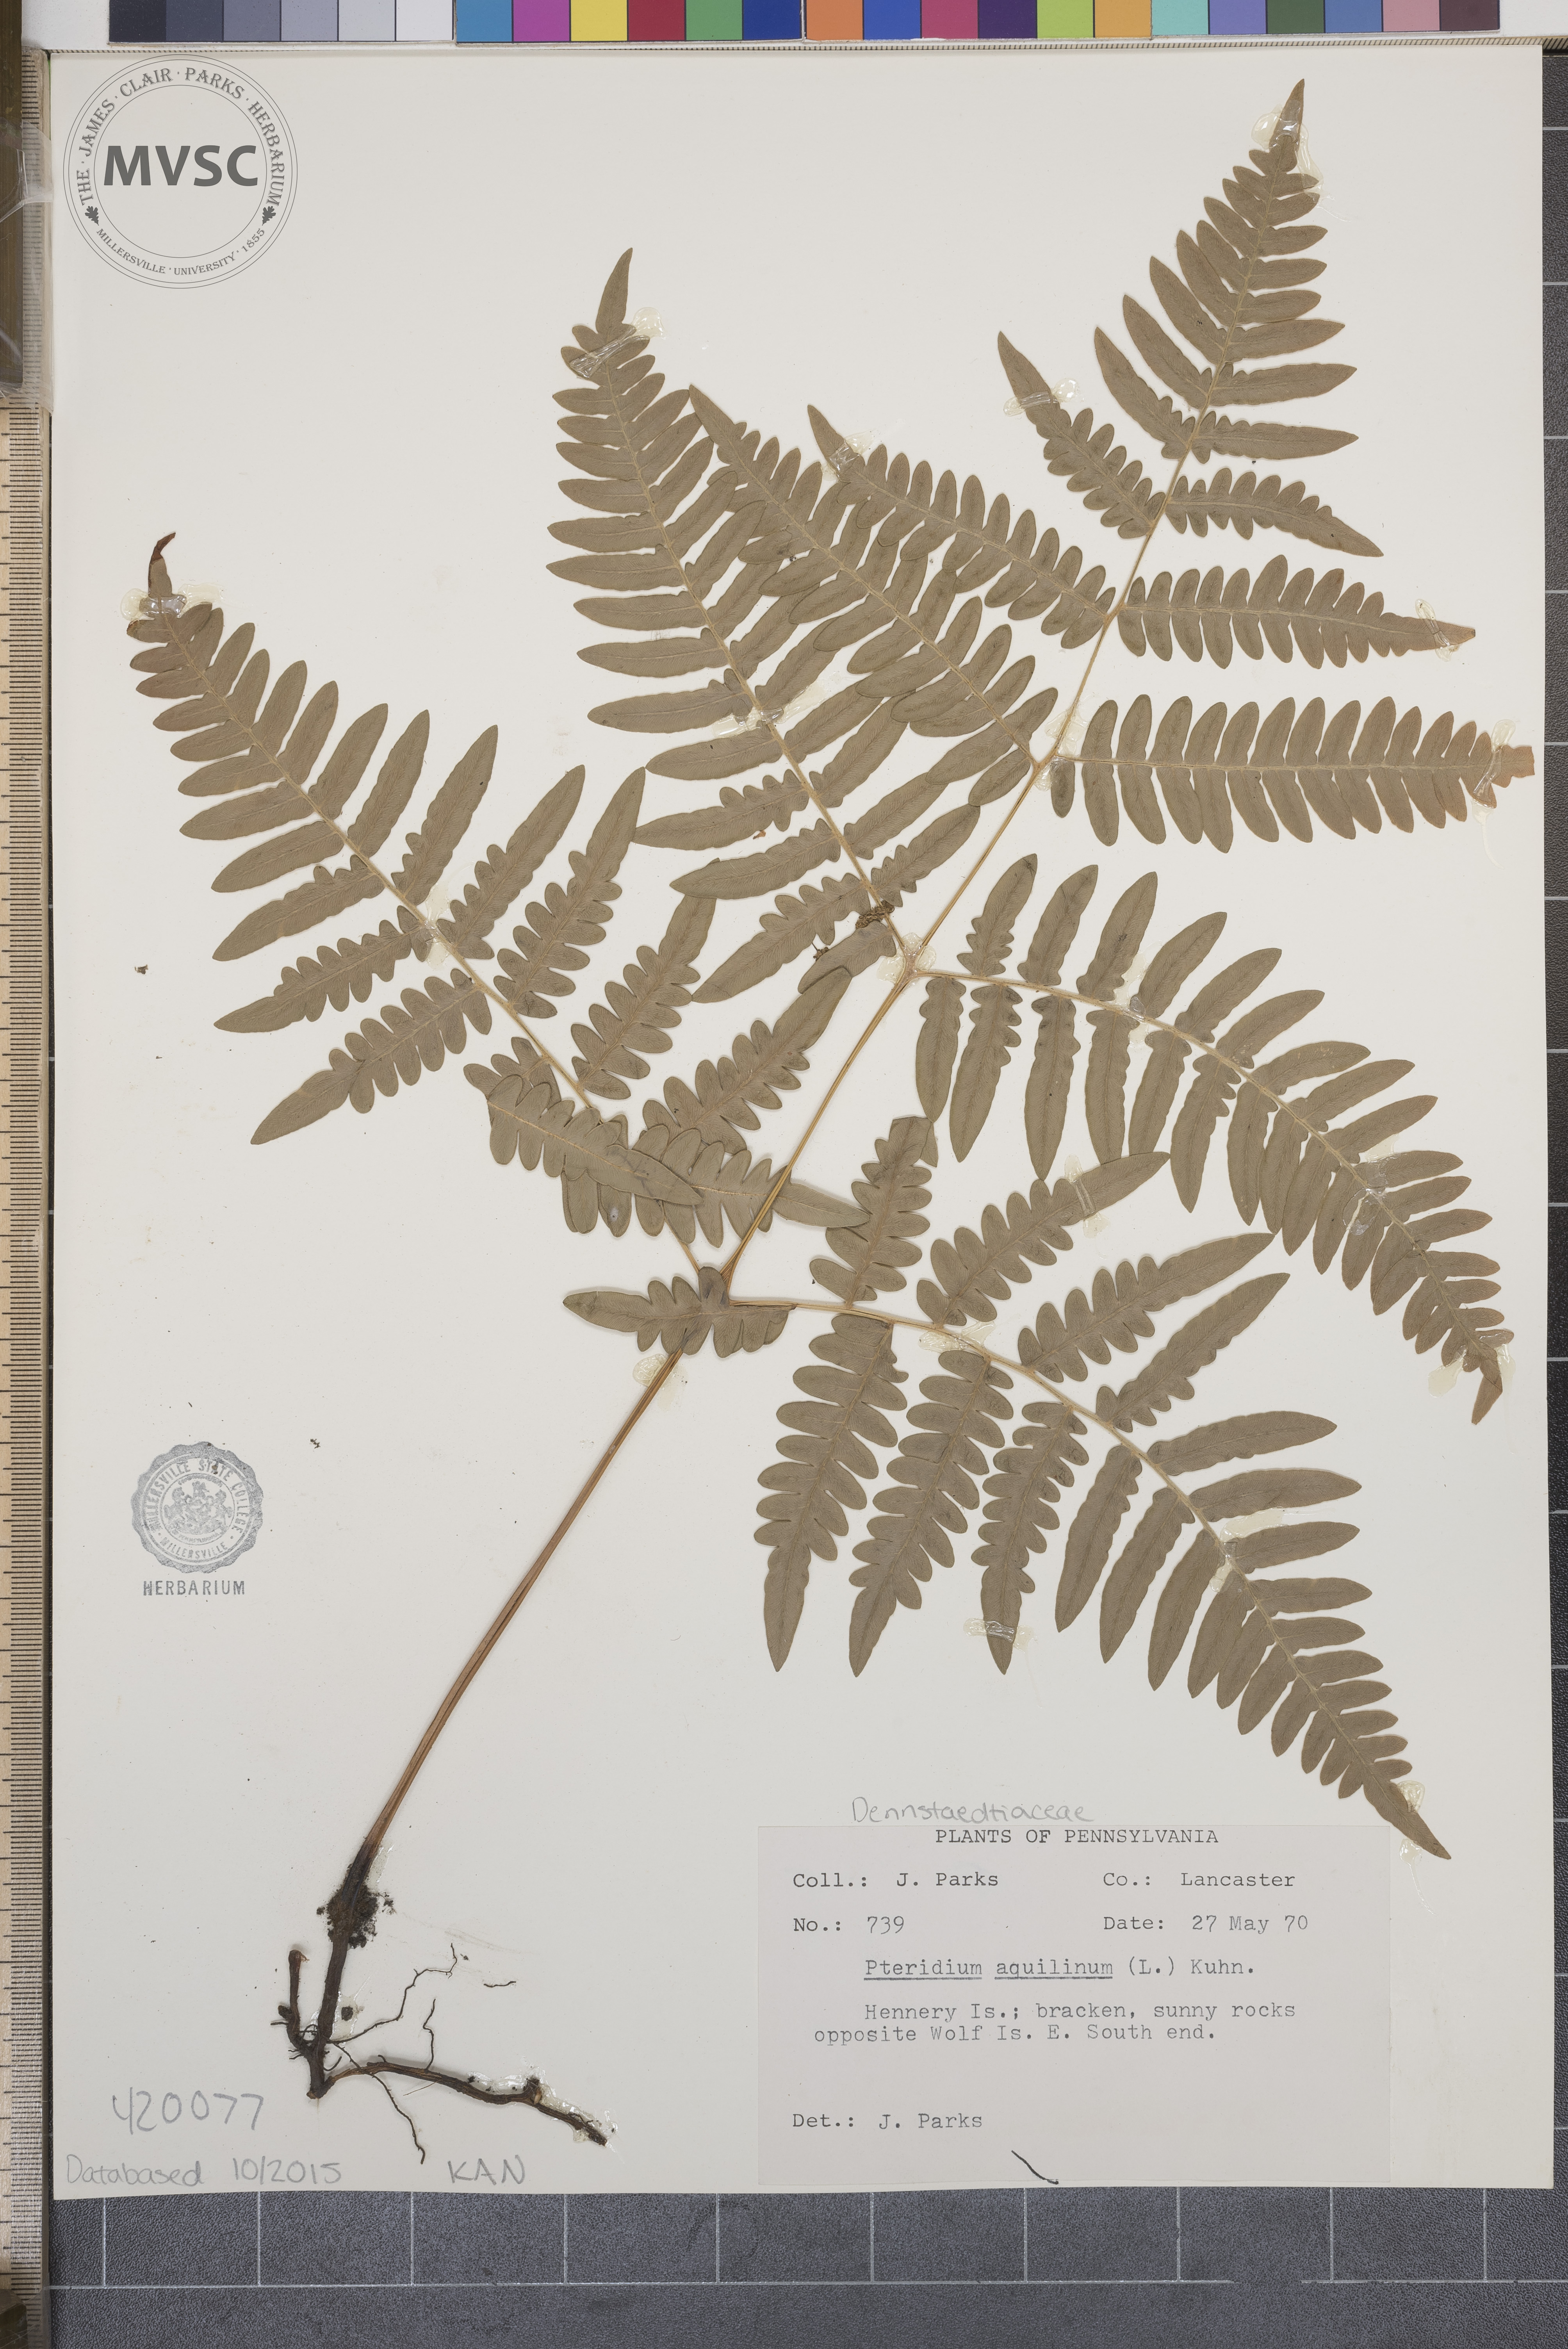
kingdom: Plantae
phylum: Tracheophyta
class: Polypodiopsida
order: Polypodiales
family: Dennstaedtiaceae
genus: Pteridium
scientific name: Pteridium aquilinum
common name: Bracken
